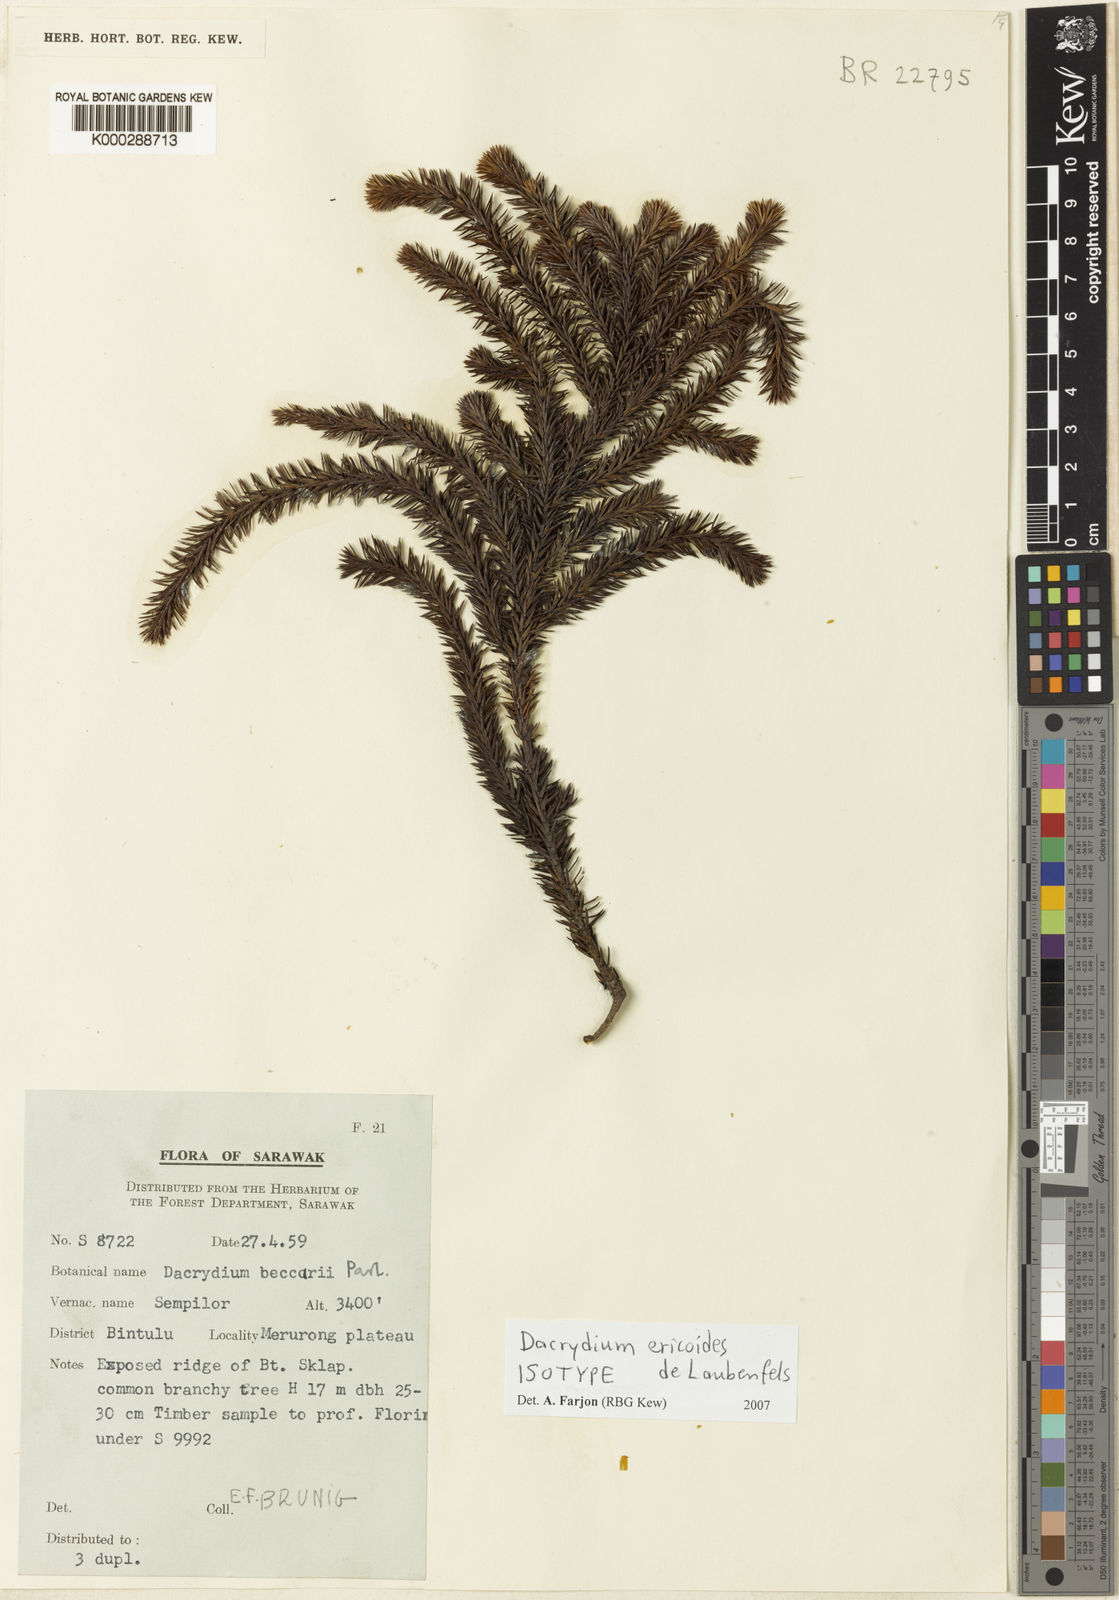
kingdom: Plantae
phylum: Tracheophyta
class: Pinopsida
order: Pinales
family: Podocarpaceae
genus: Dacrydium
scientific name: Dacrydium ericoides
